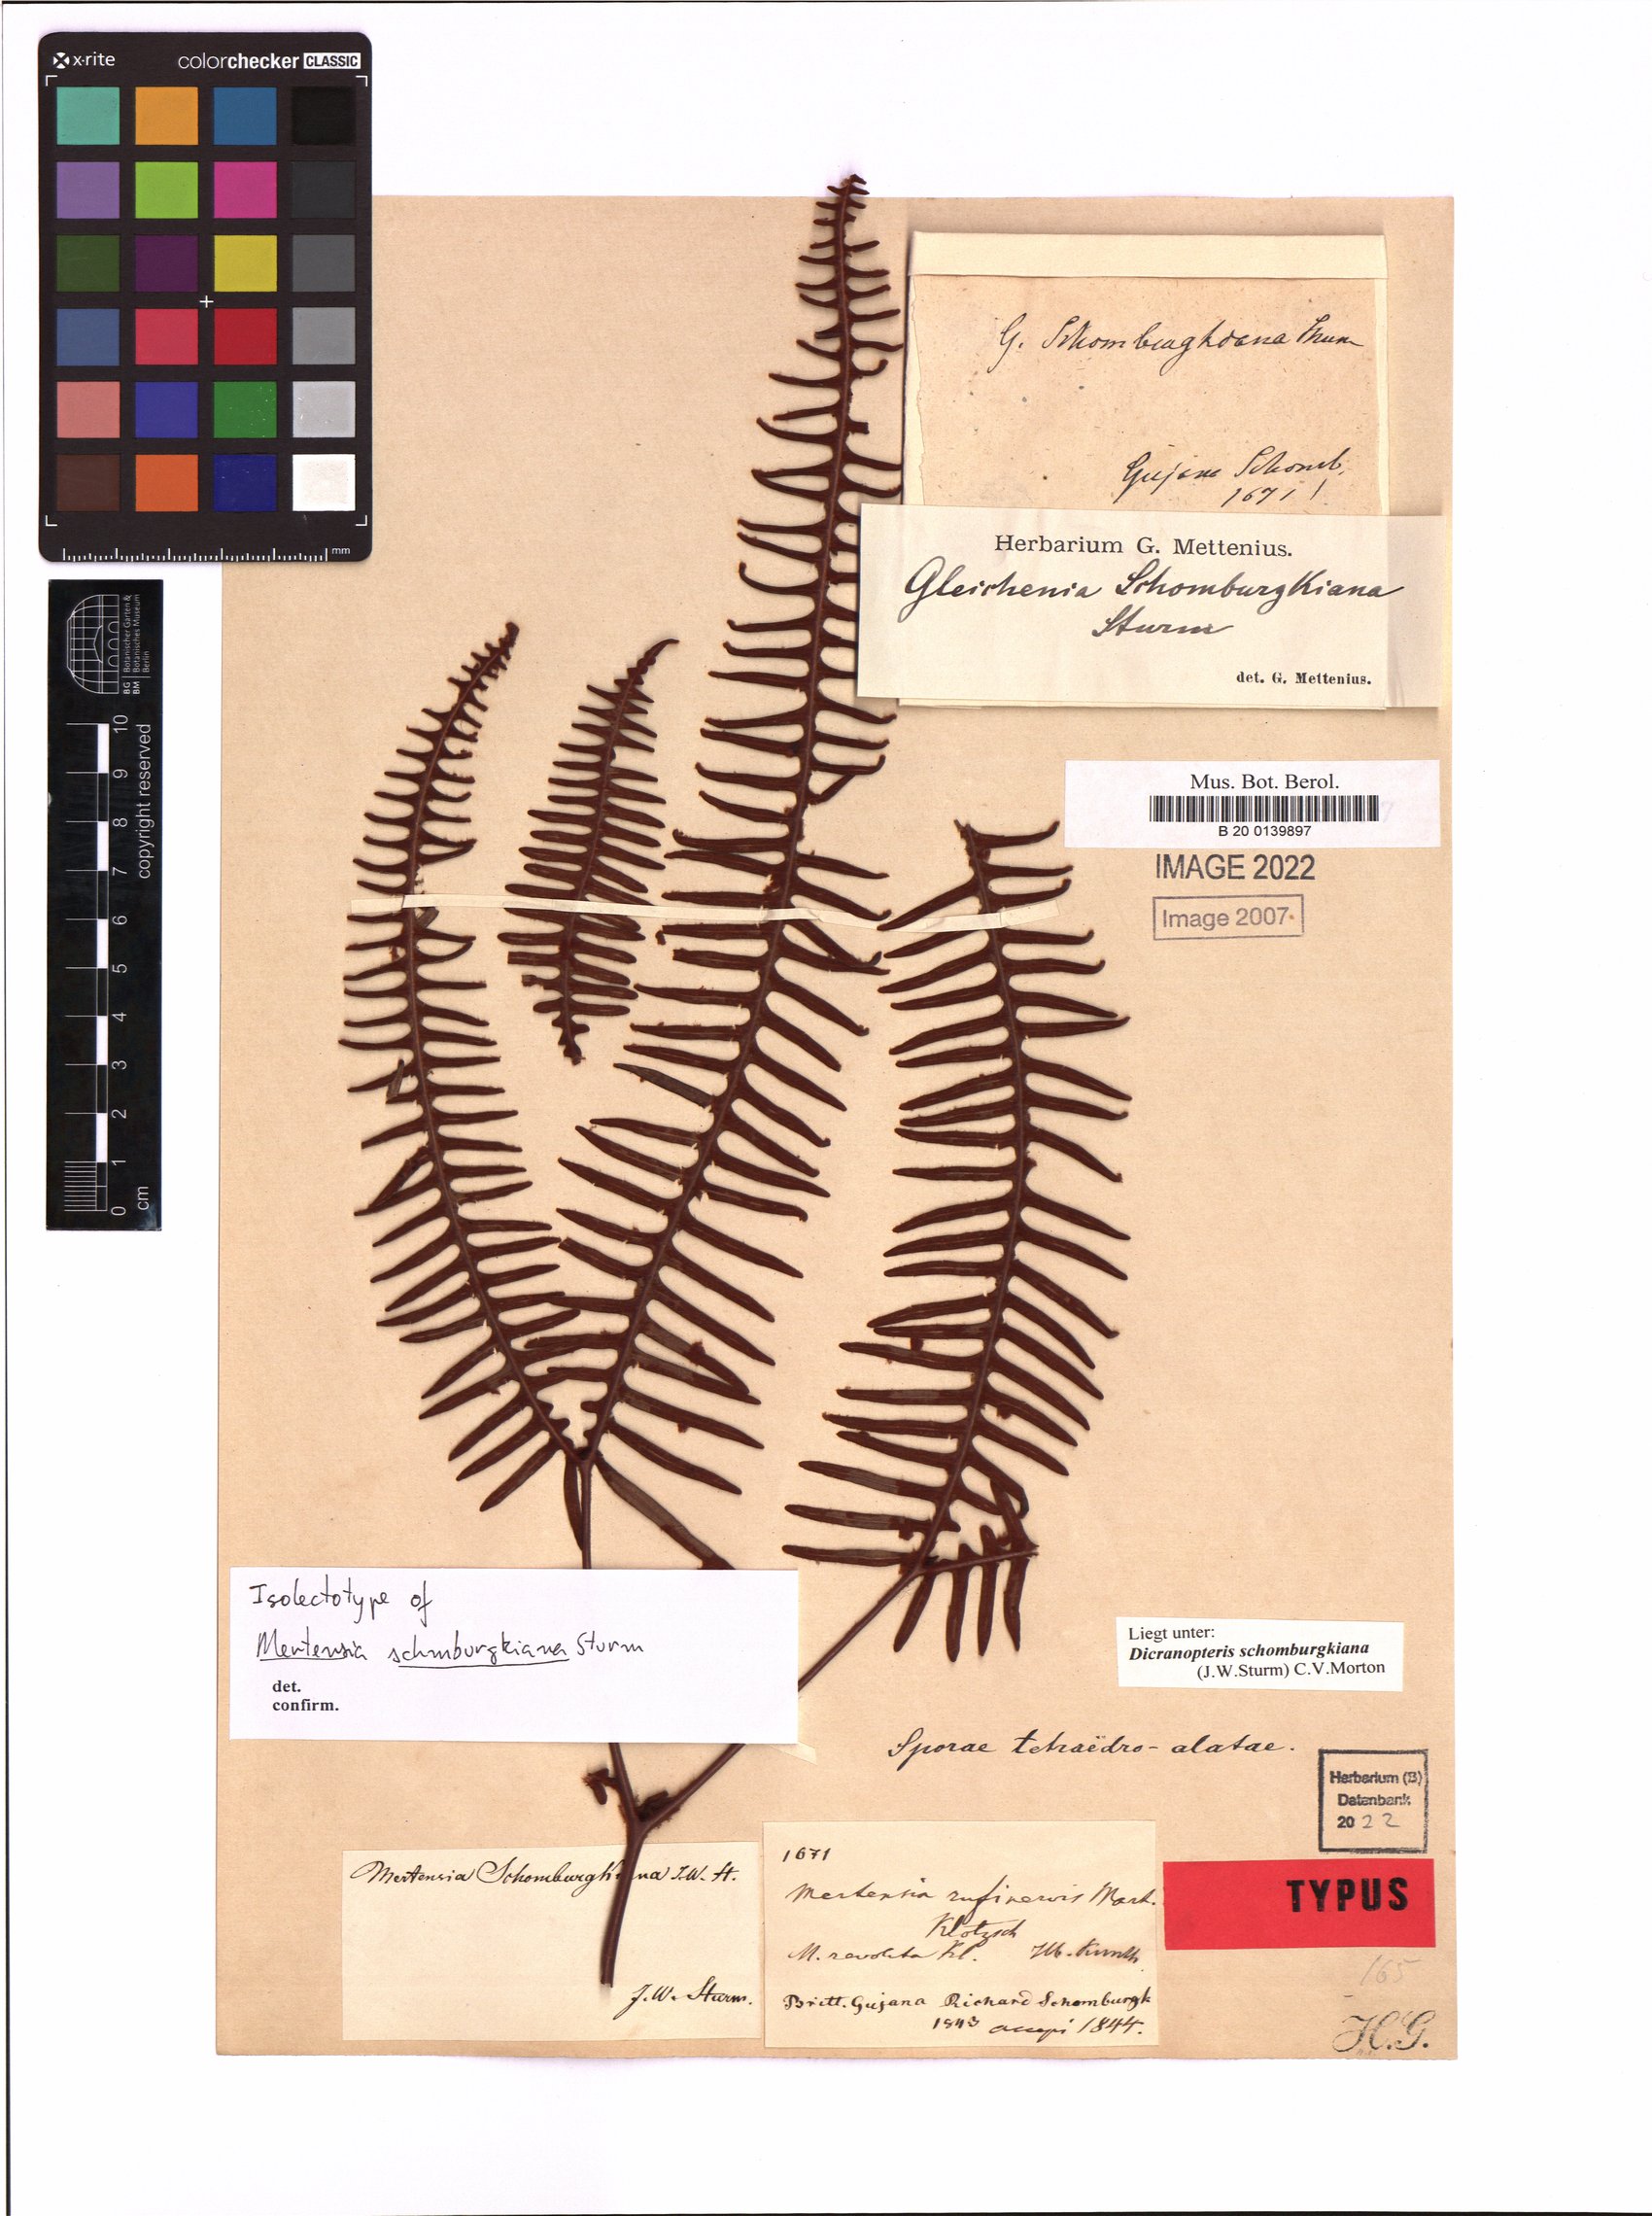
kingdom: Plantae
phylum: Tracheophyta
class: Polypodiopsida
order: Gleicheniales
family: Gleicheniaceae
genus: Dicranopteris
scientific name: Dicranopteris schomburgkiana
